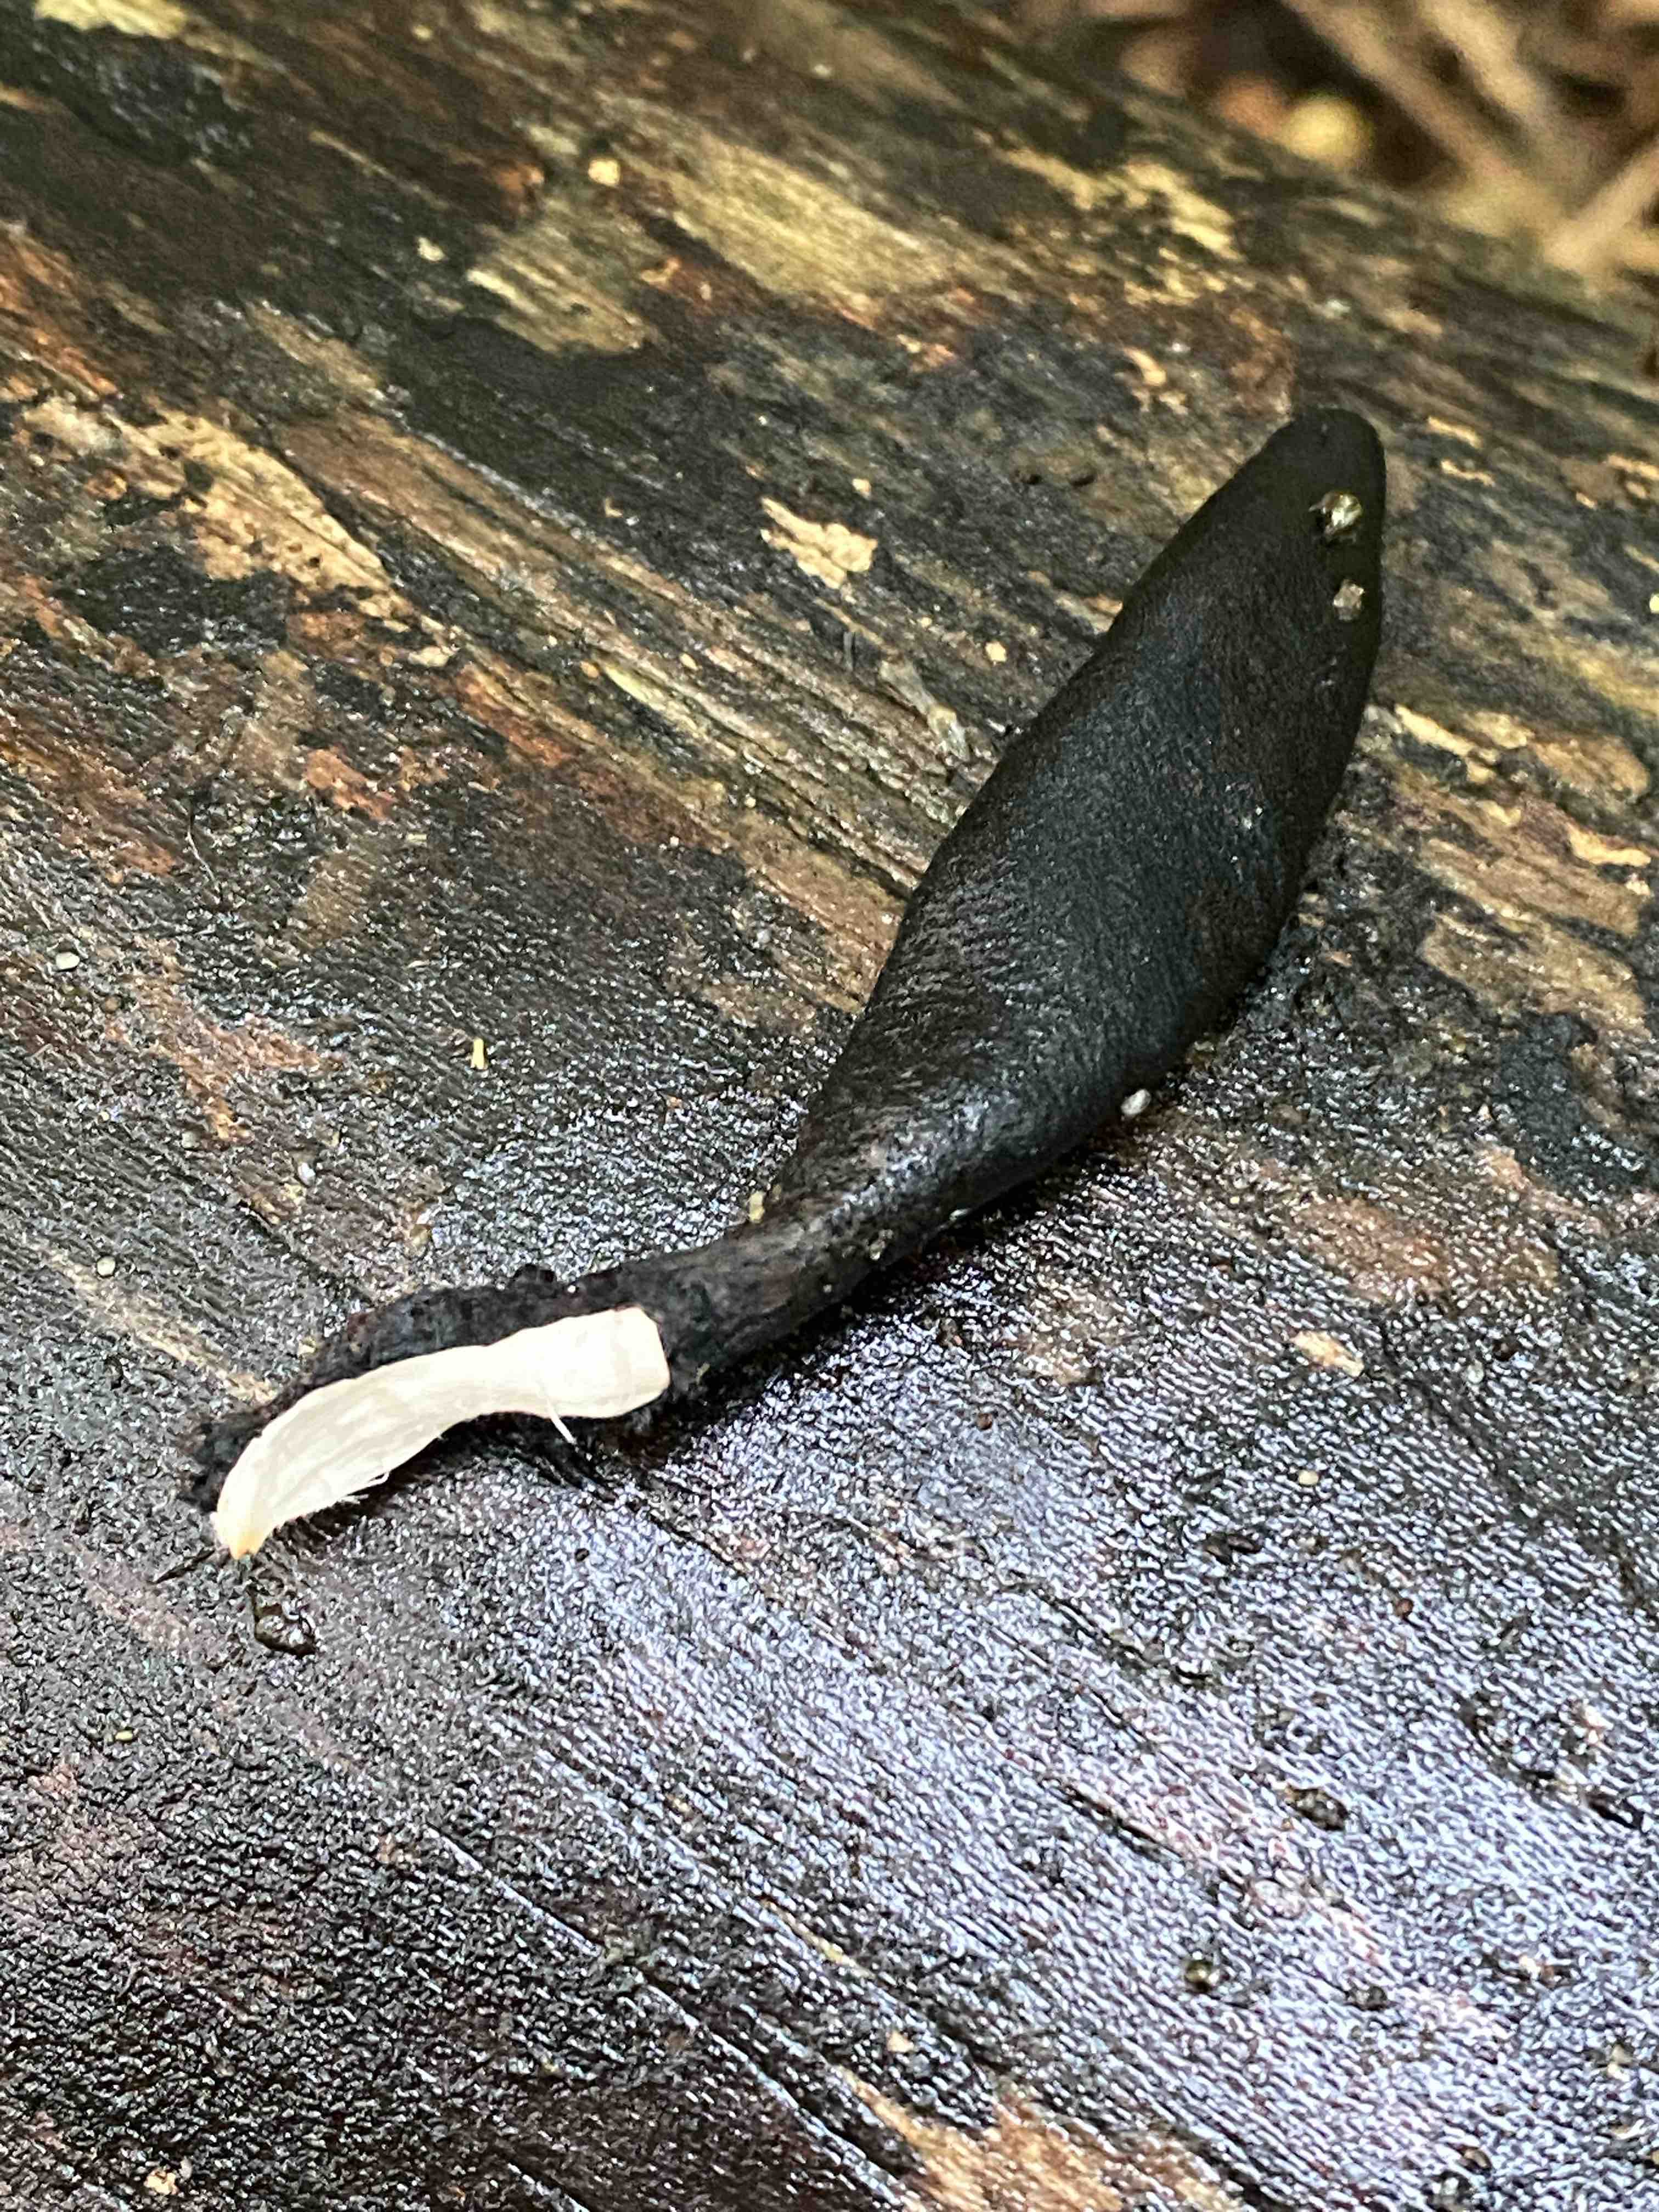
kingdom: Fungi
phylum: Ascomycota
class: Sordariomycetes
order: Xylariales
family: Xylariaceae
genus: Xylaria
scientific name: Xylaria longipes
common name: slank stødsvamp
